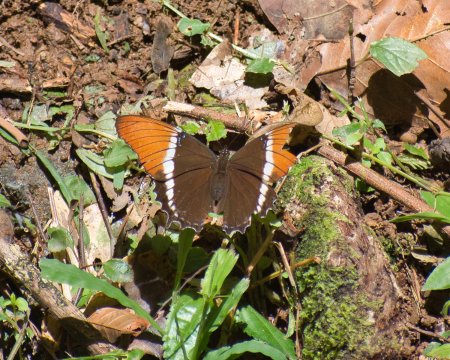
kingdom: Animalia
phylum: Arthropoda
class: Insecta
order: Lepidoptera
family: Nymphalidae
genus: Siproeta
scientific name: Siproeta epaphus
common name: Rusty-tipped Page
